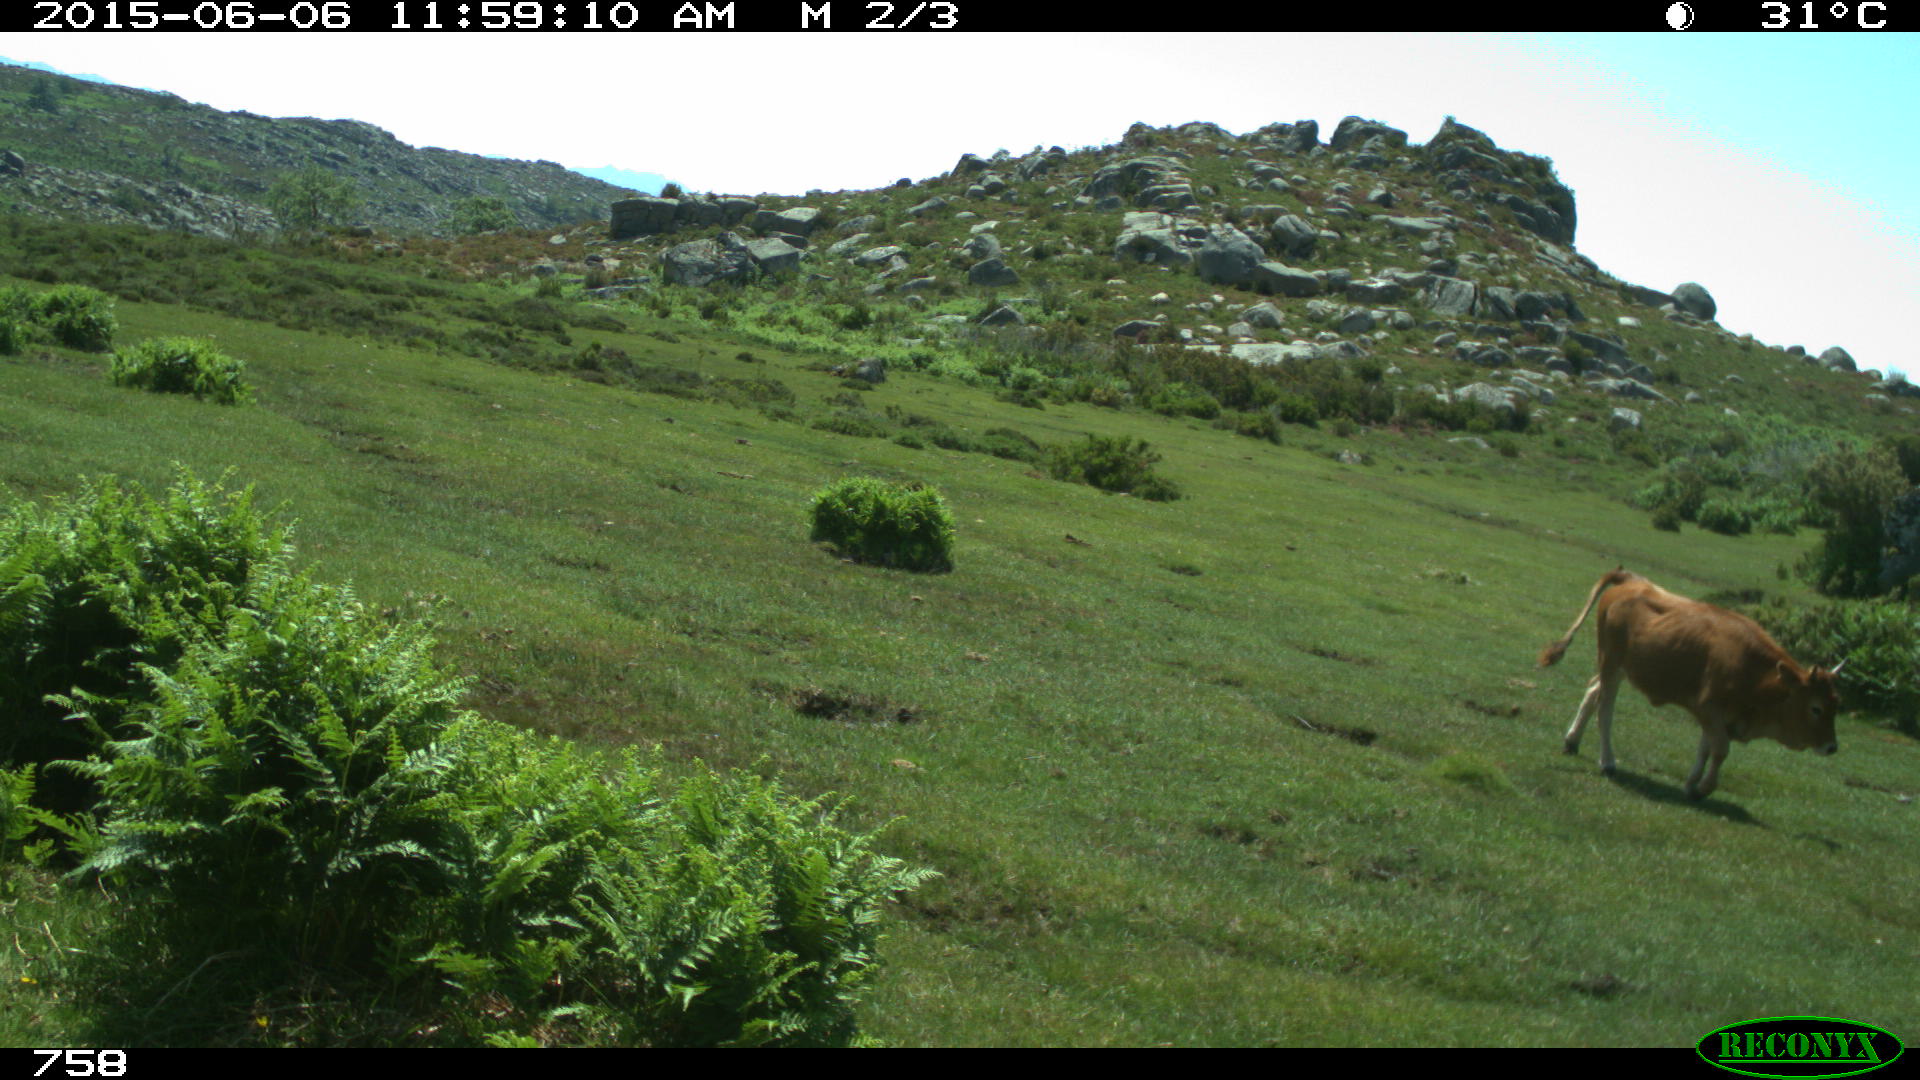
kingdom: Animalia
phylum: Chordata
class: Mammalia
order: Artiodactyla
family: Bovidae
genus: Bos
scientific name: Bos taurus
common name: Domesticated cattle
